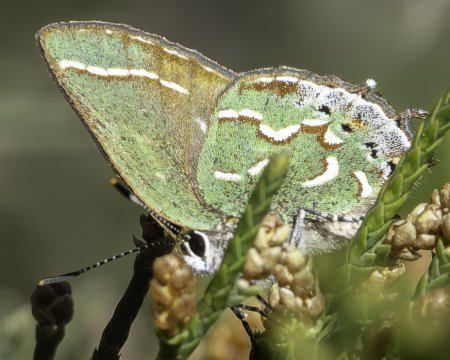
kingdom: Animalia
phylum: Arthropoda
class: Insecta
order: Lepidoptera
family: Lycaenidae
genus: Mitoura
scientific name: Mitoura gryneus
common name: Juniper Hairstreak
